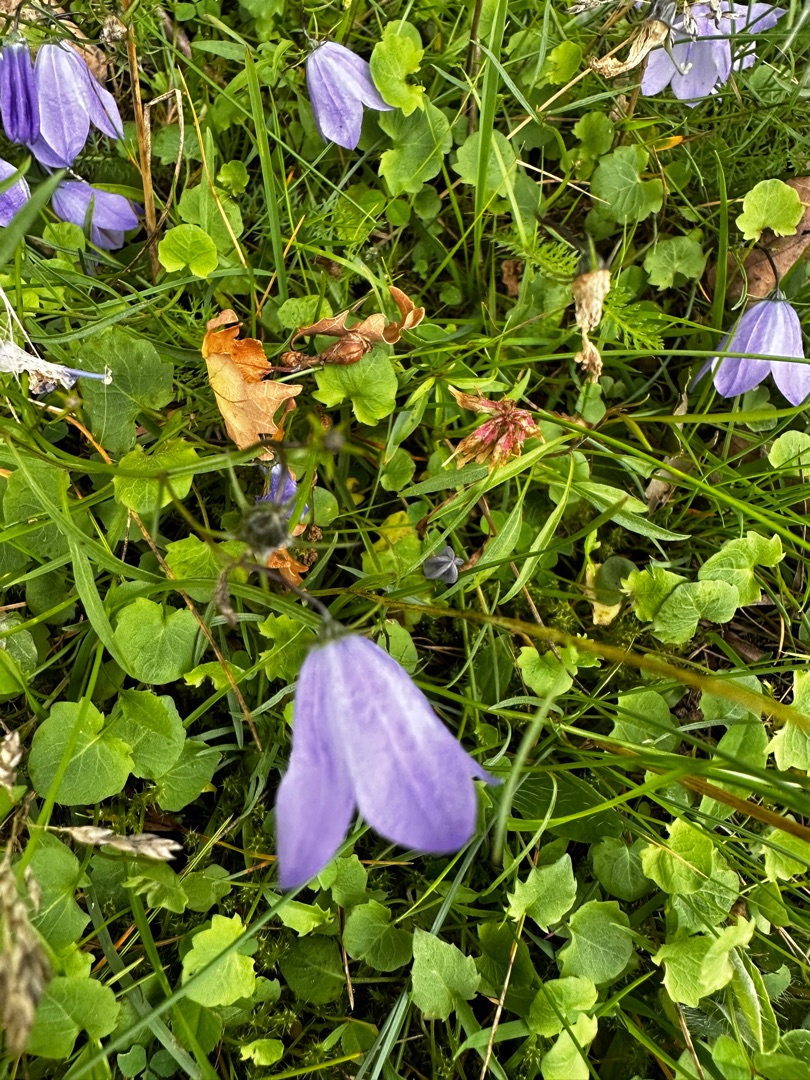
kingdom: Plantae
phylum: Tracheophyta
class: Magnoliopsida
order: Asterales
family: Campanulaceae
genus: Campanula
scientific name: Campanula rotundifolia
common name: Liden klokke
